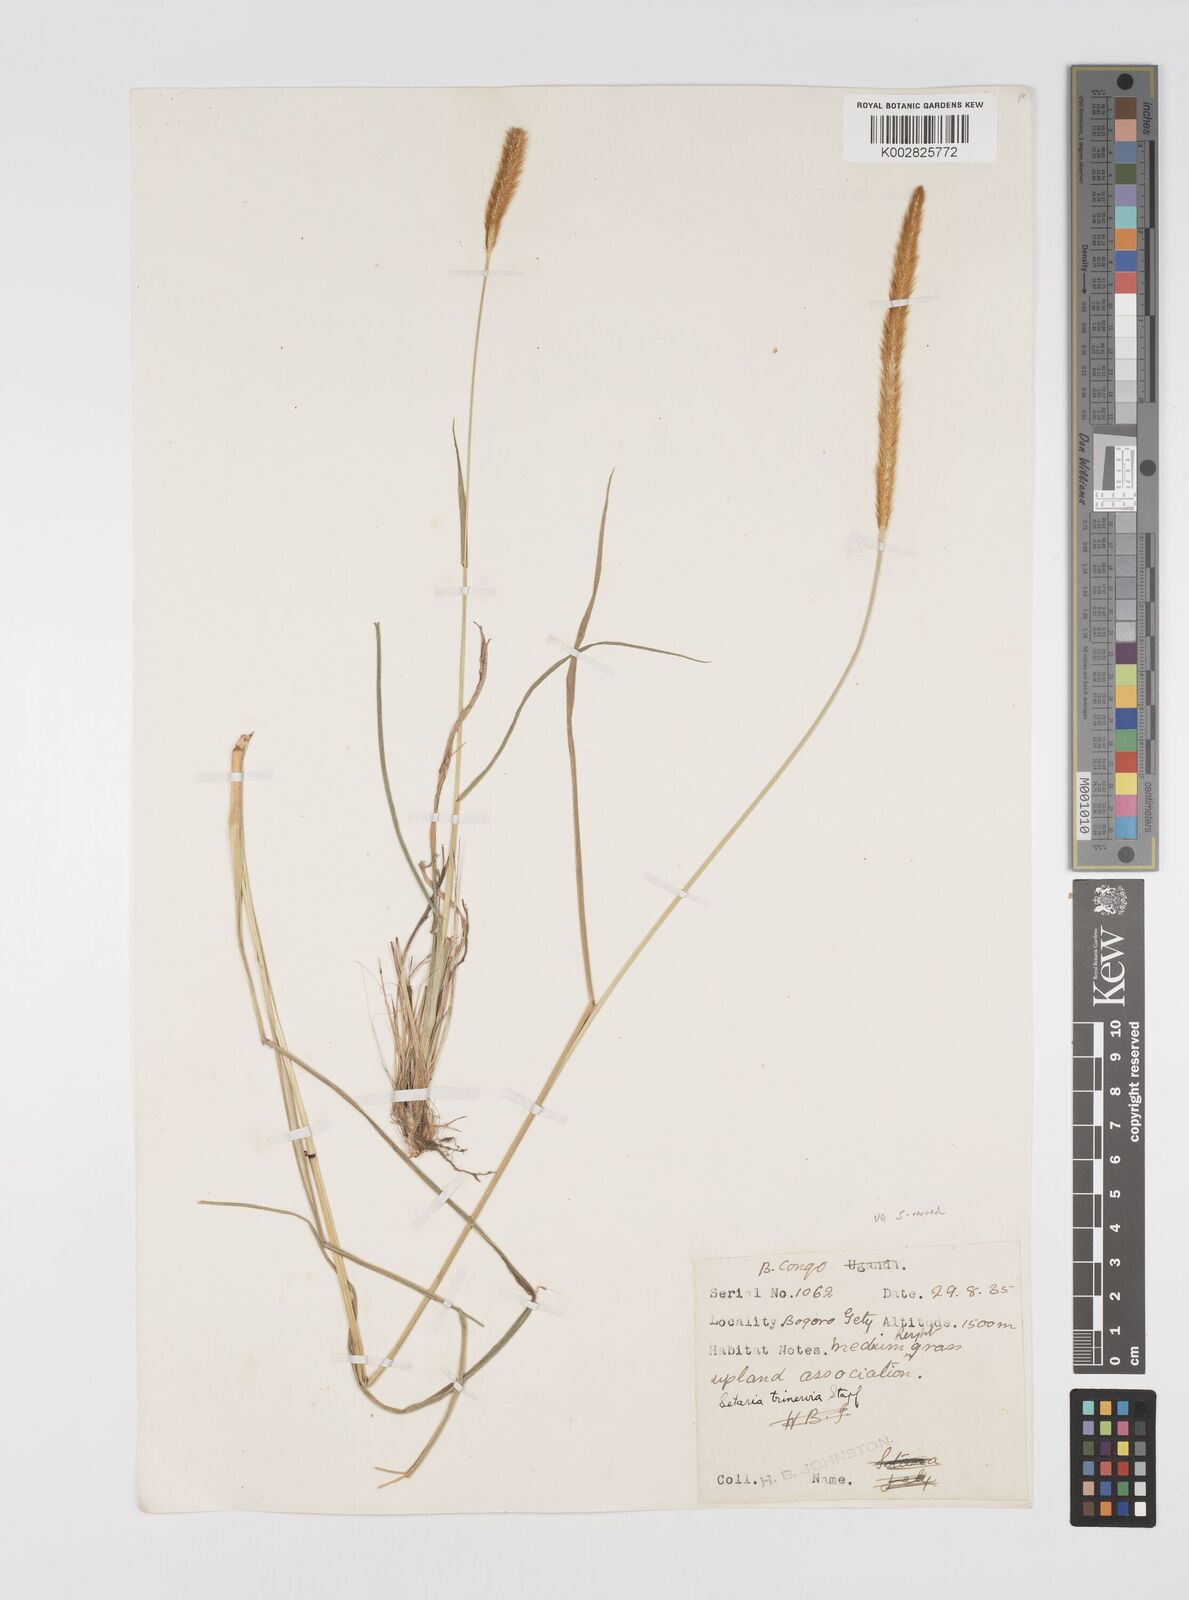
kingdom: Plantae
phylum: Tracheophyta
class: Liliopsida
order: Poales
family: Poaceae
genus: Setaria
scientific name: Setaria sphacelata
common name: African bristlegrass
